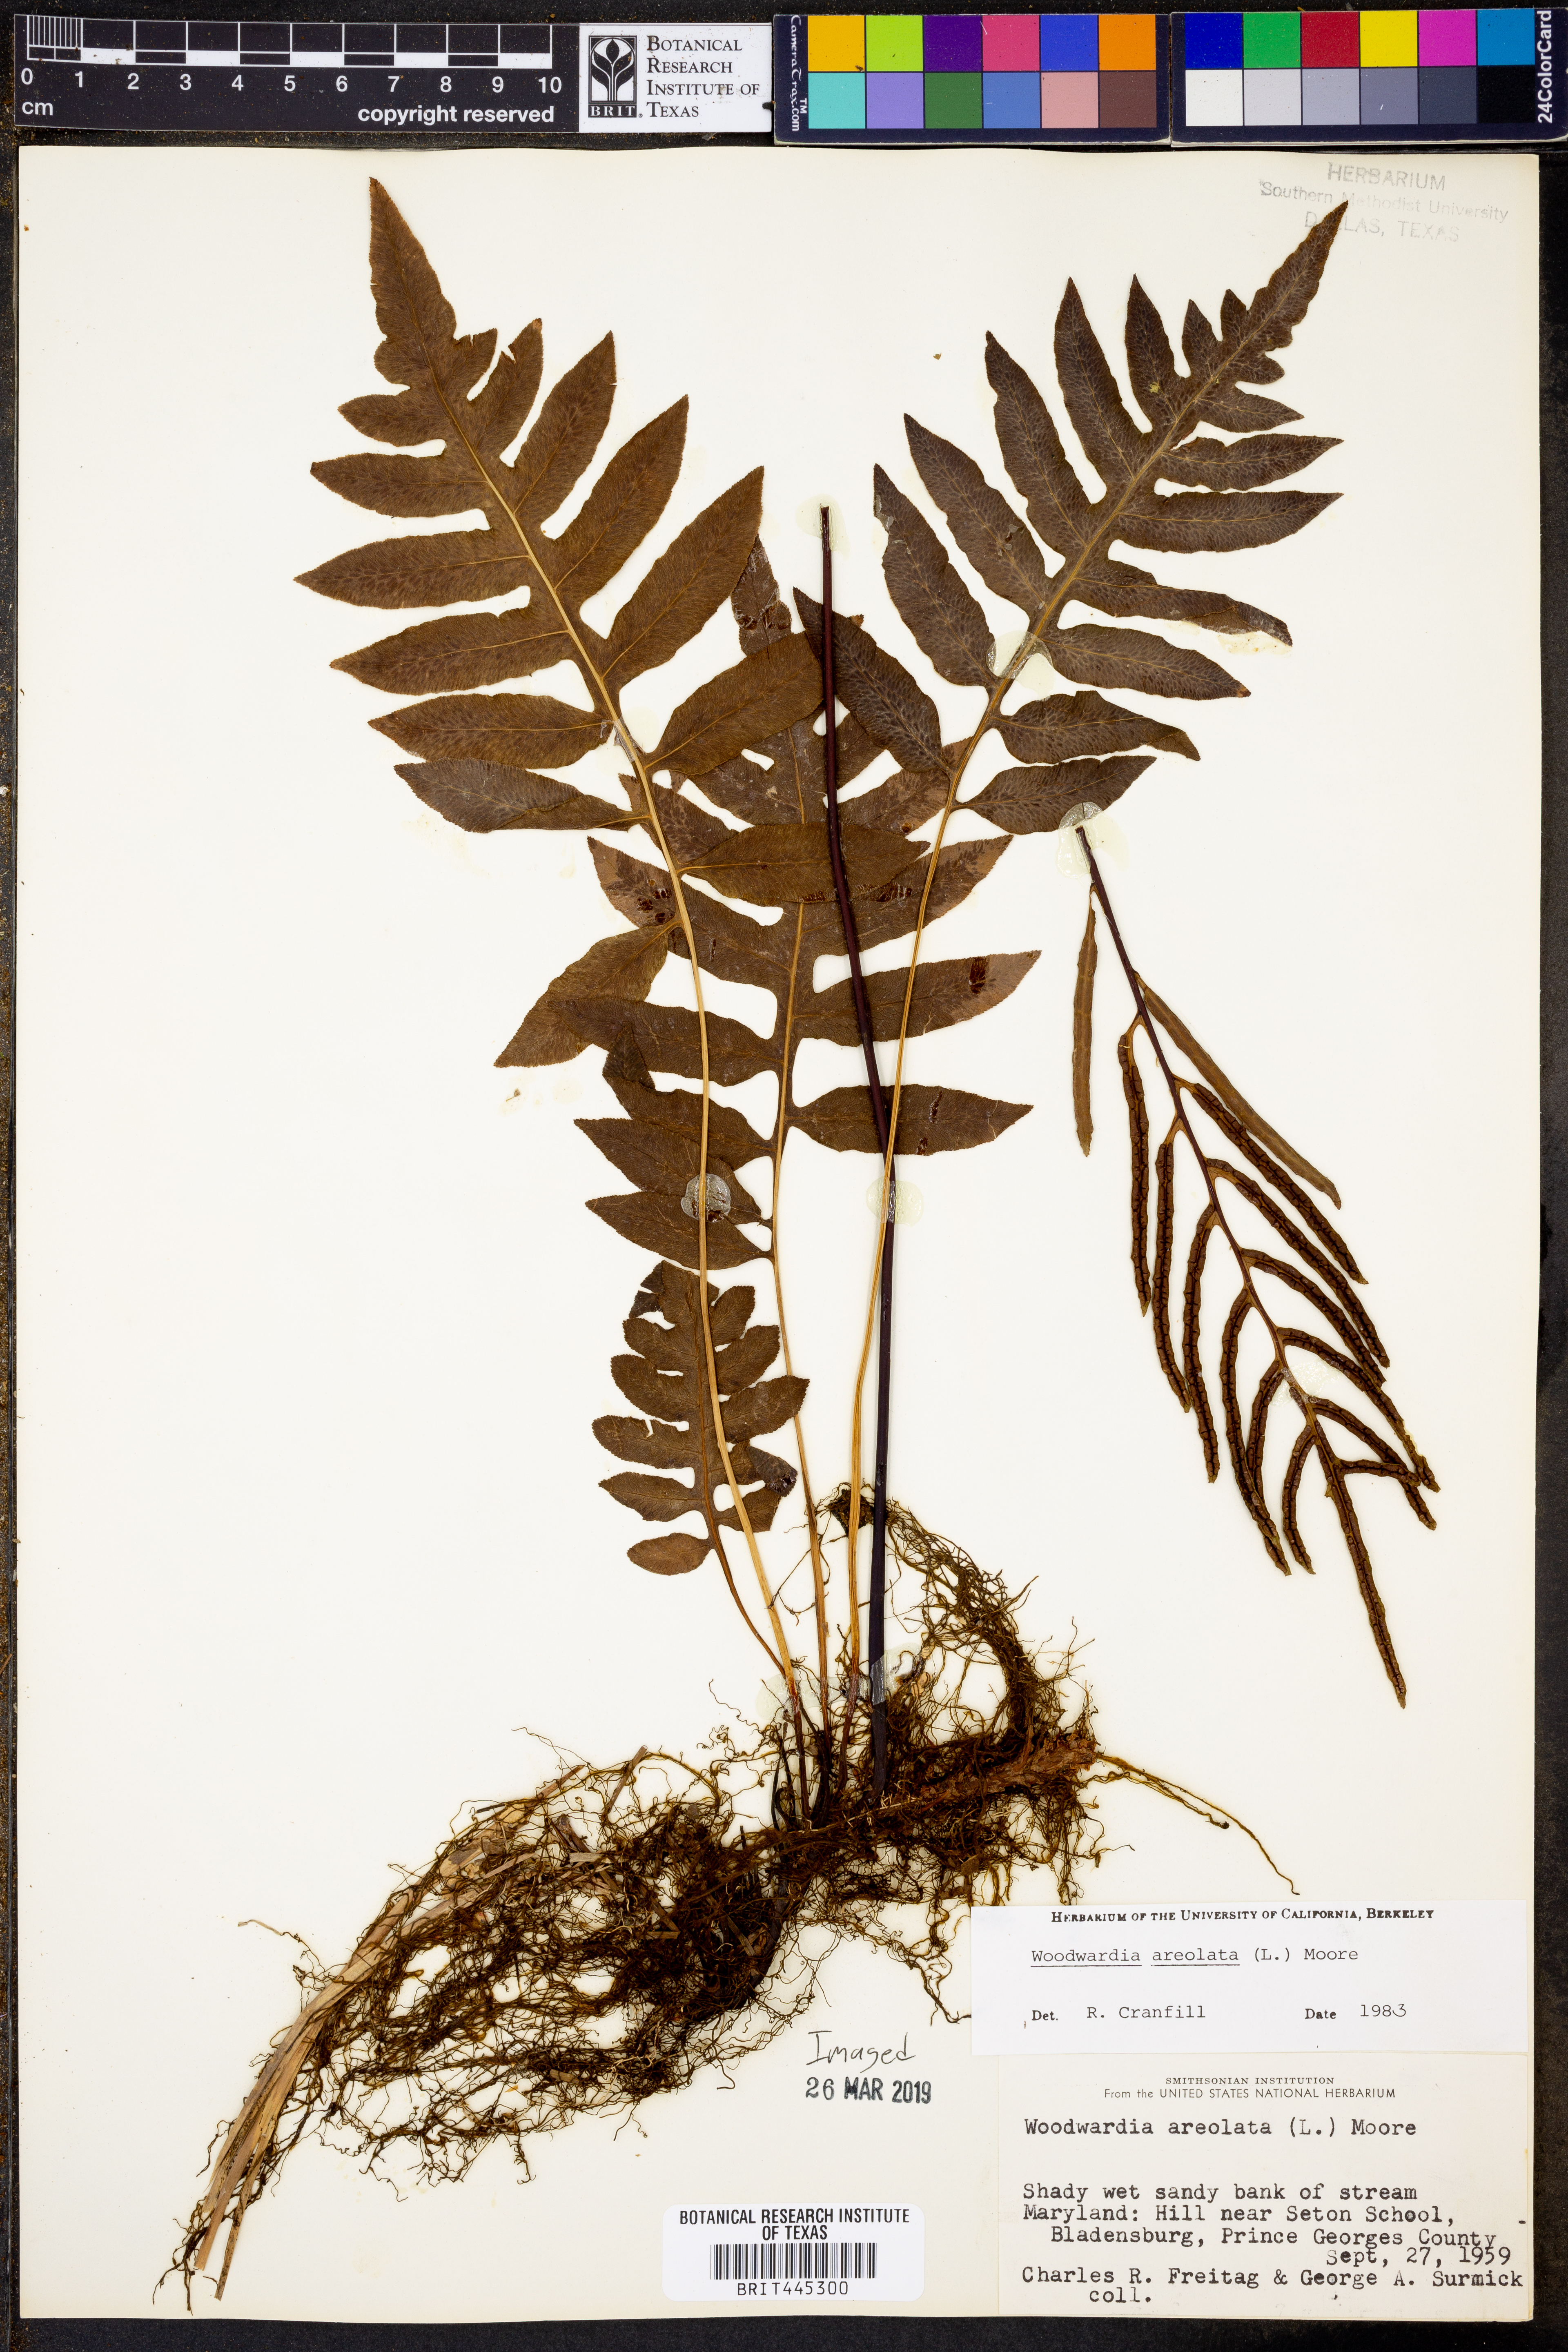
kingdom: Plantae
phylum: Tracheophyta
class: Polypodiopsida
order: Polypodiales
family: Blechnaceae
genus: Lorinseria
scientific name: Lorinseria areolata
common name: Dwarf chain fern
